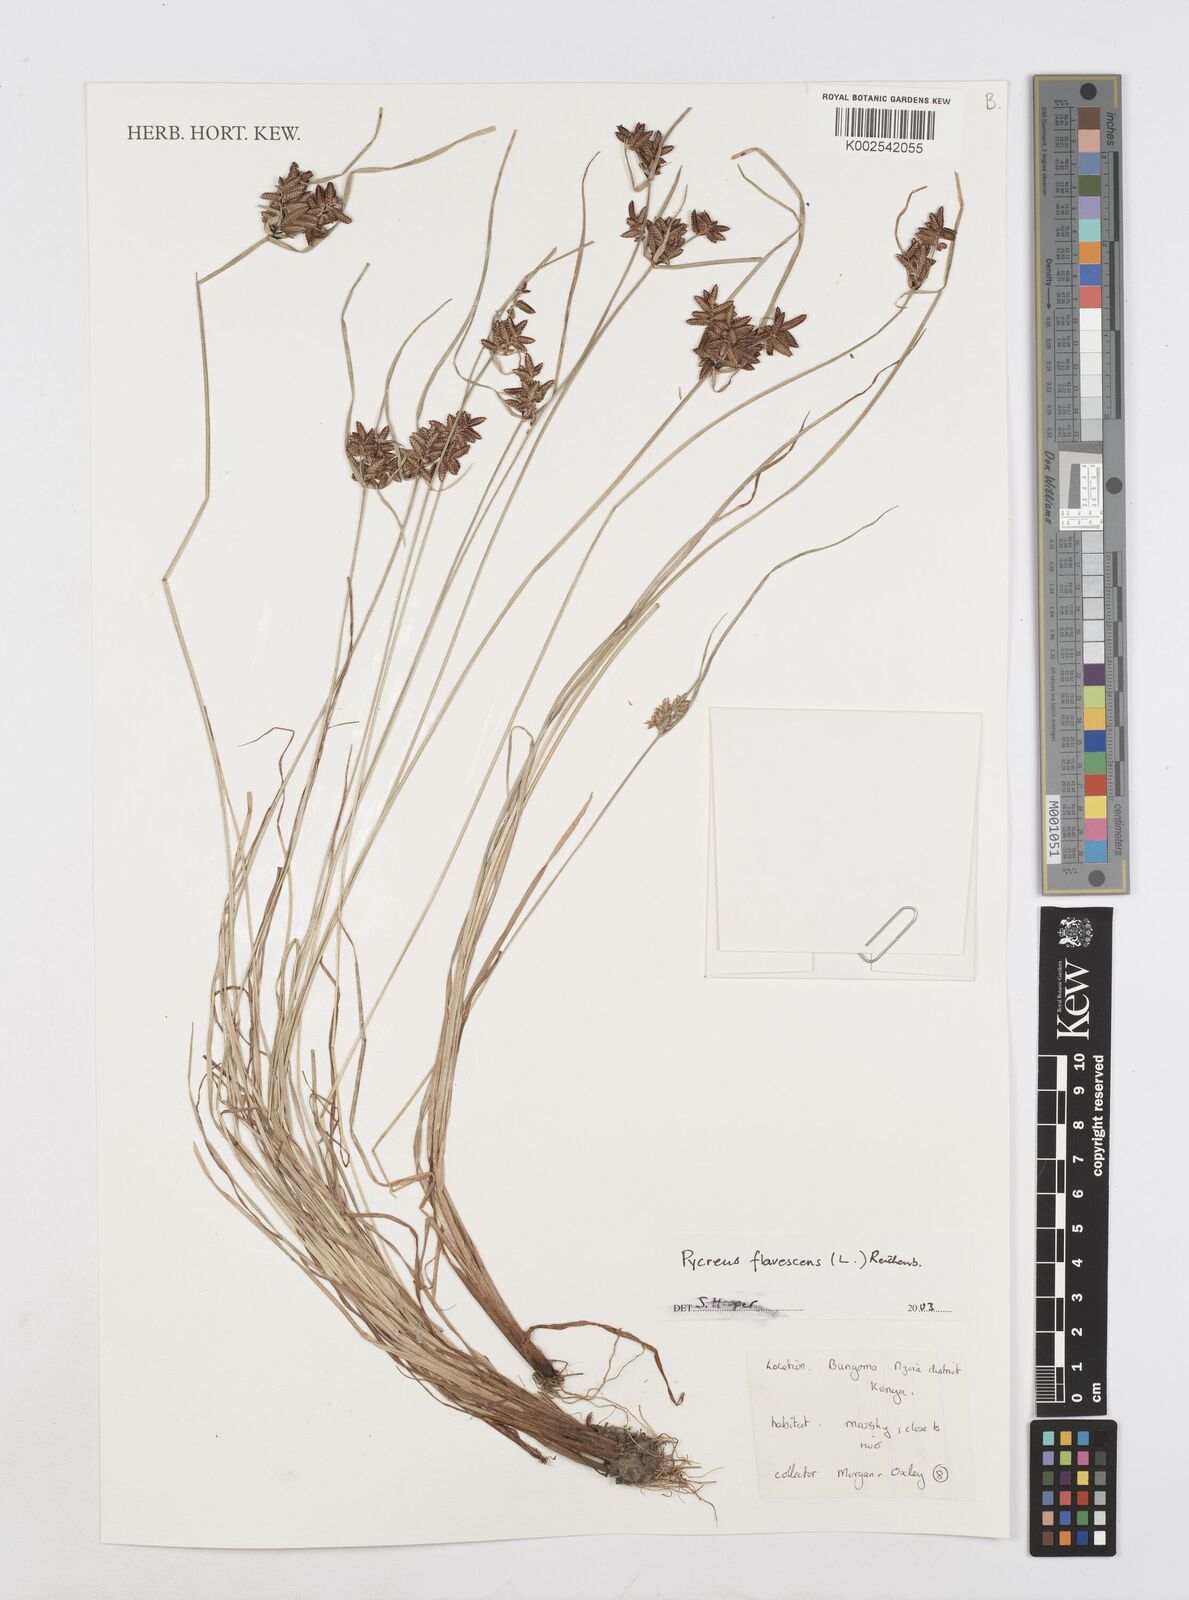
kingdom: Plantae
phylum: Tracheophyta
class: Liliopsida
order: Poales
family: Cyperaceae
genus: Cyperus
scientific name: Cyperus flavescens
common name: Yellow galingale
